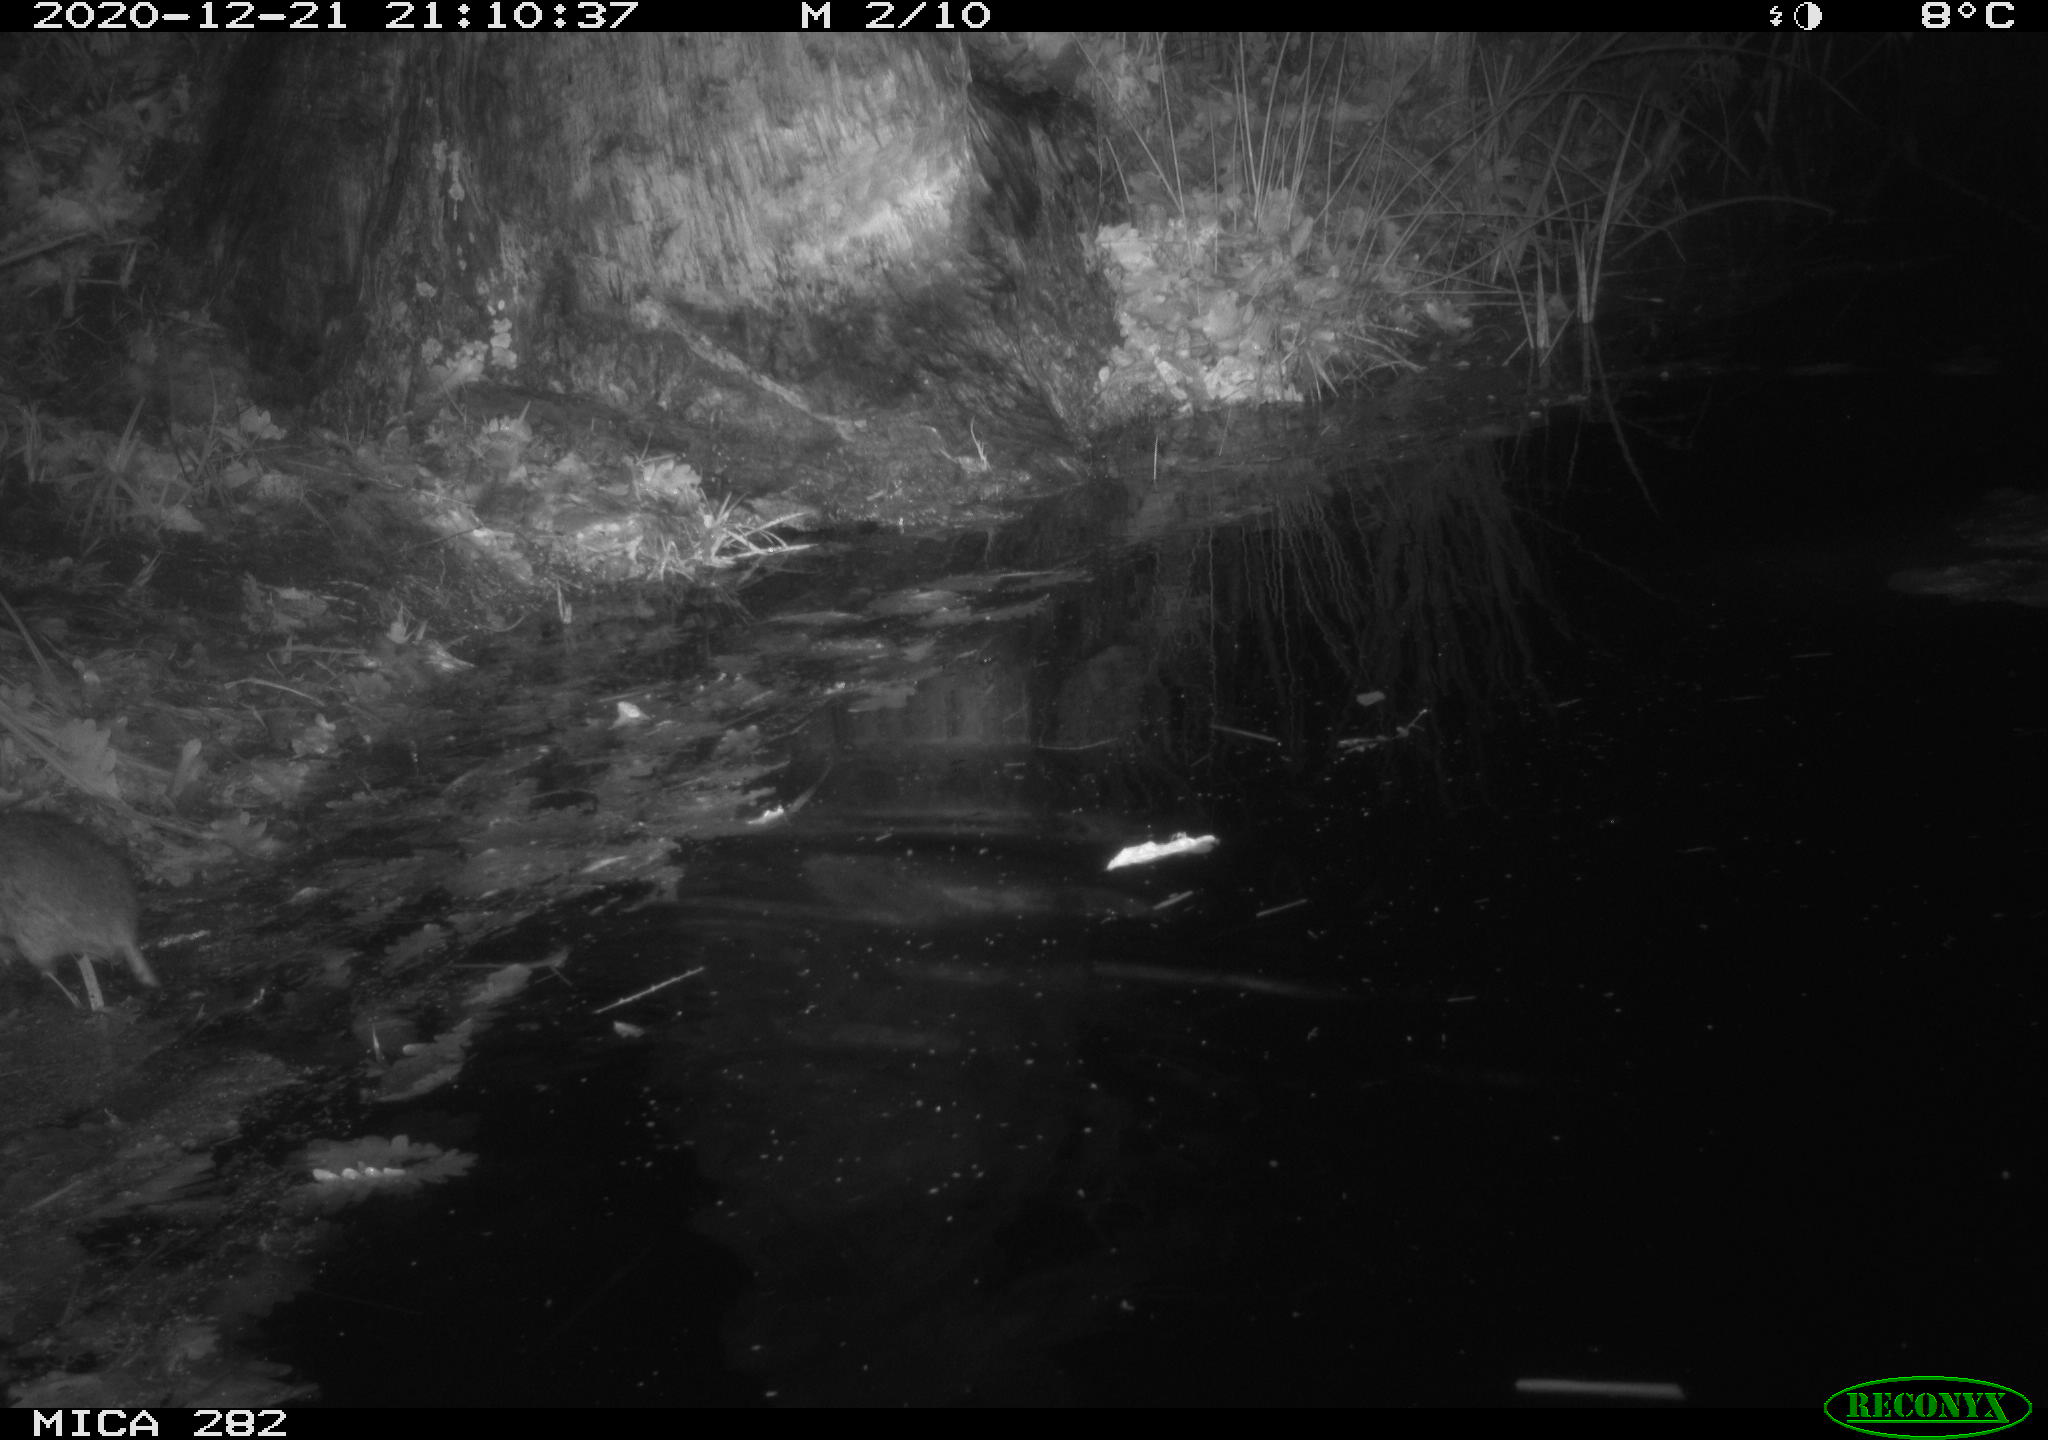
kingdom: Animalia
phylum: Chordata
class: Mammalia
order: Rodentia
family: Muridae
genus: Rattus
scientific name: Rattus norvegicus
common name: Brown rat
